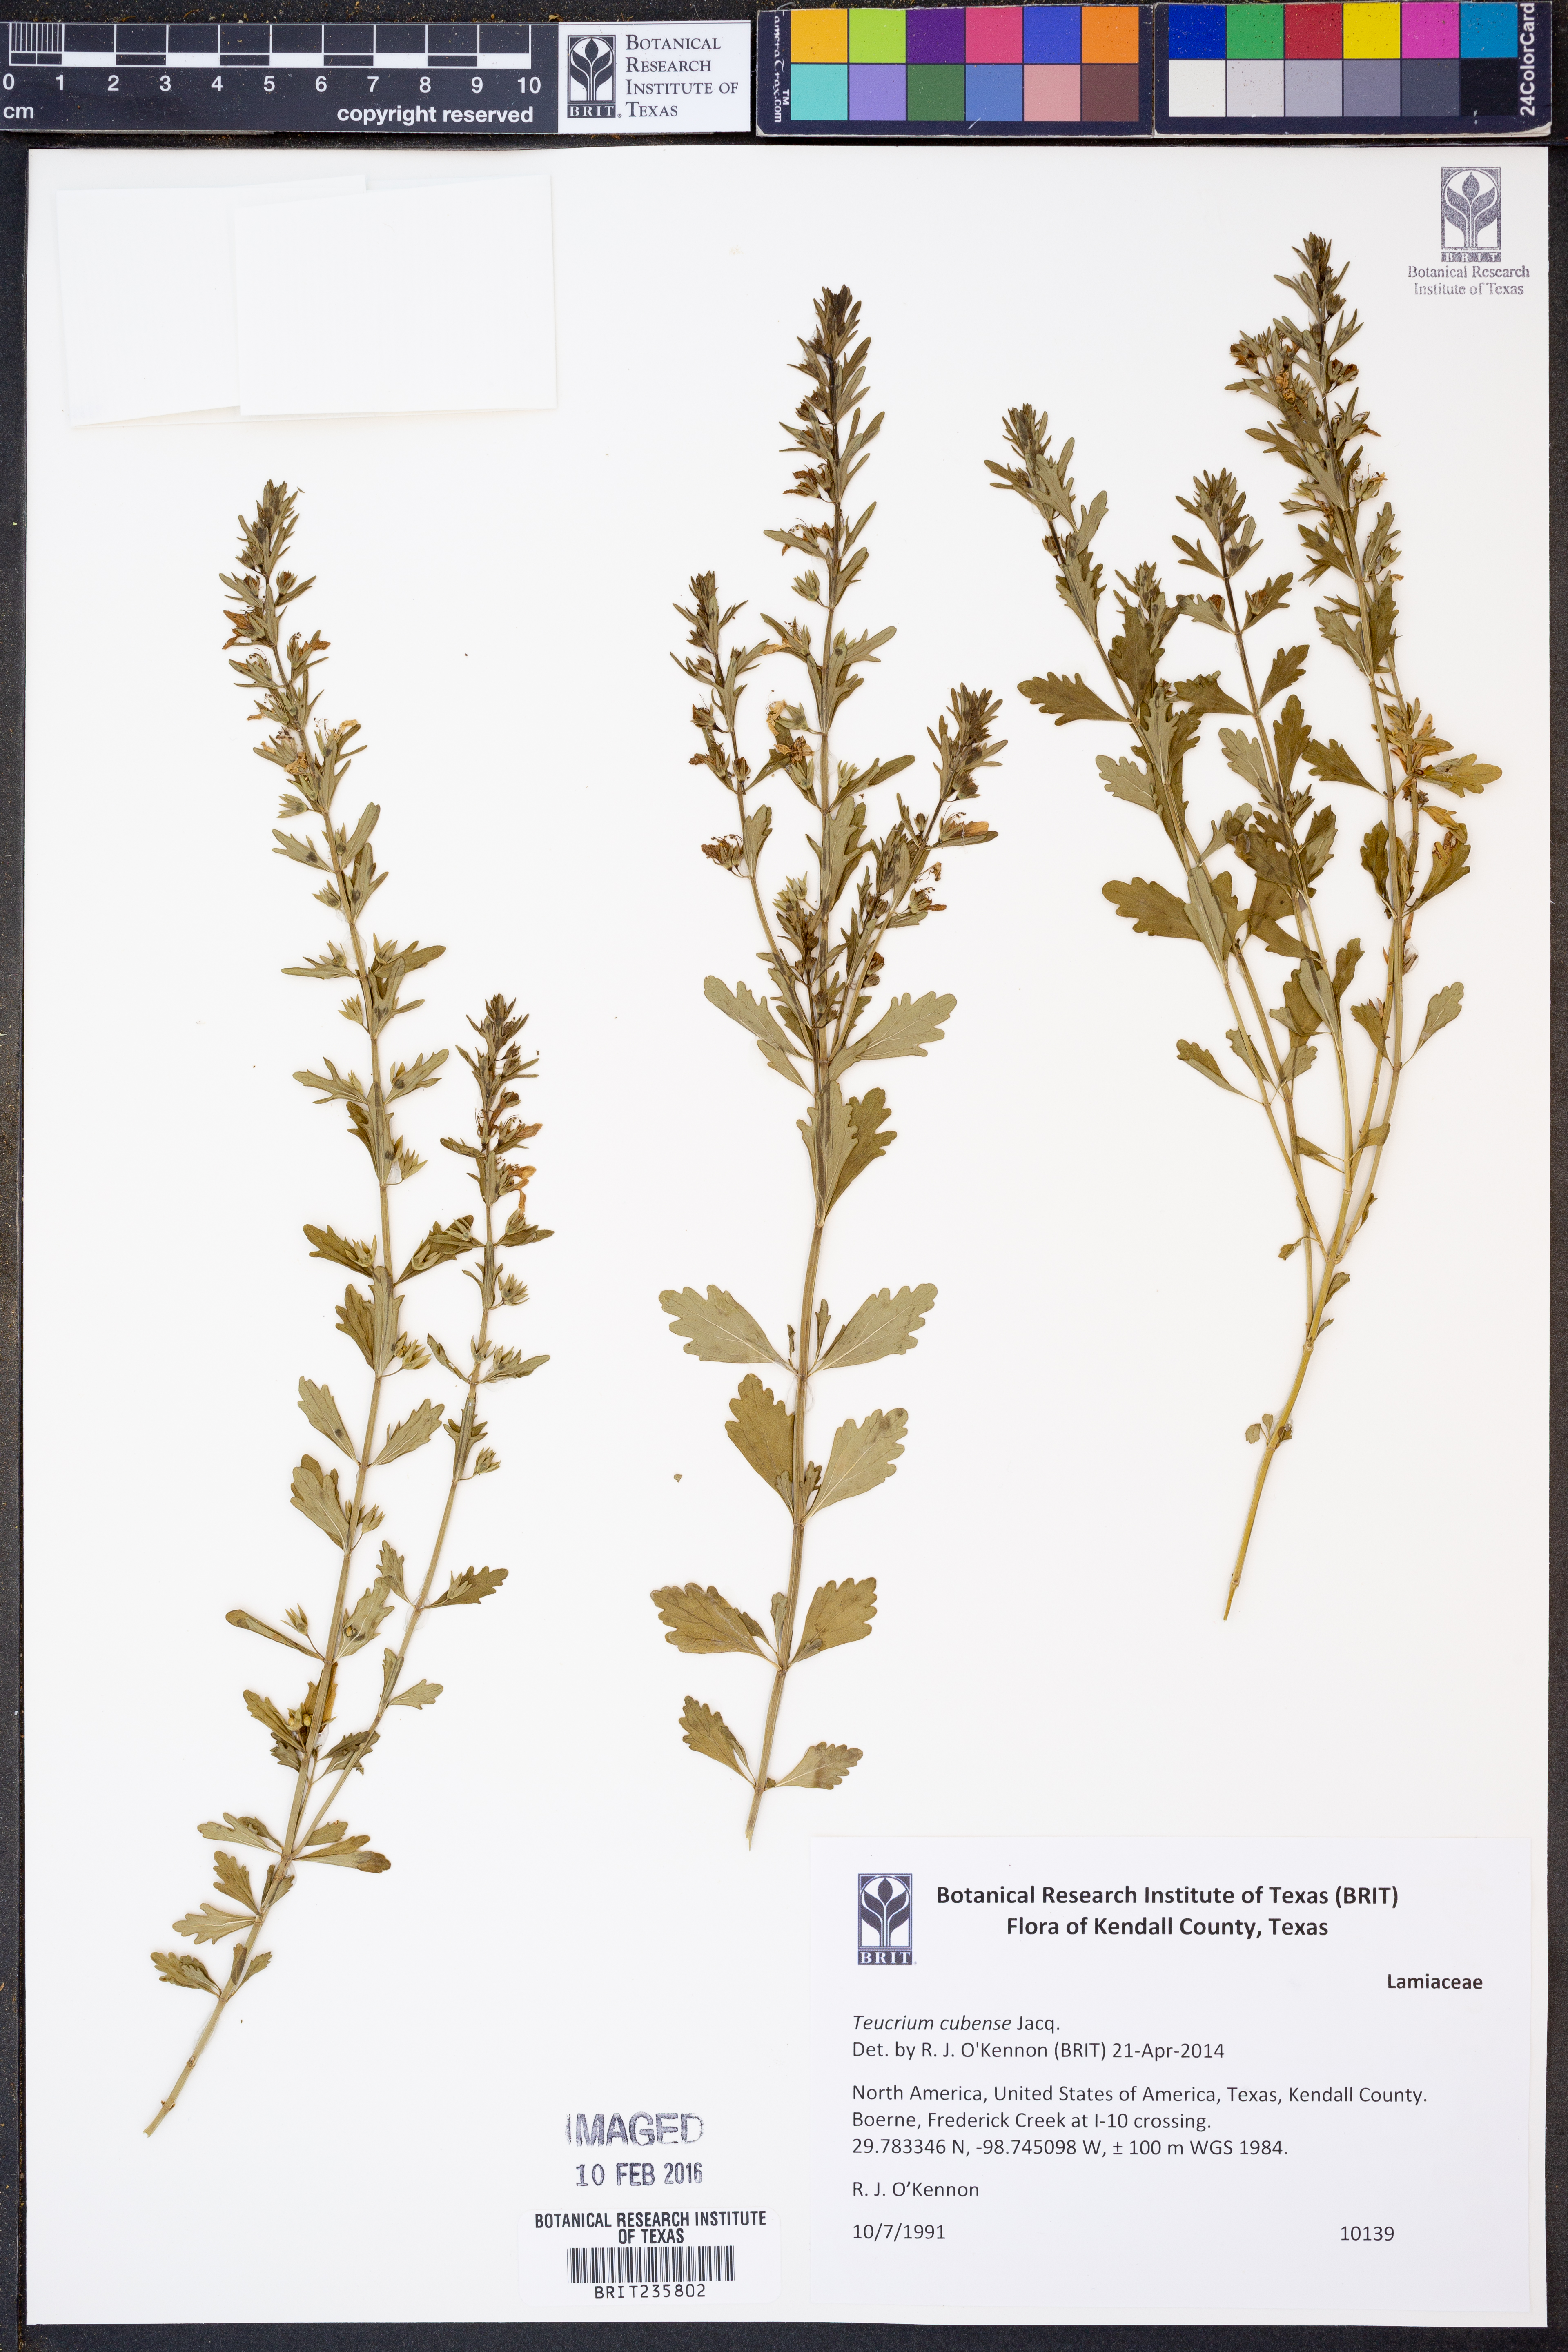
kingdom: Plantae
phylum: Tracheophyta
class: Magnoliopsida
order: Lamiales
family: Lamiaceae
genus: Teucrium
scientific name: Teucrium cubense
